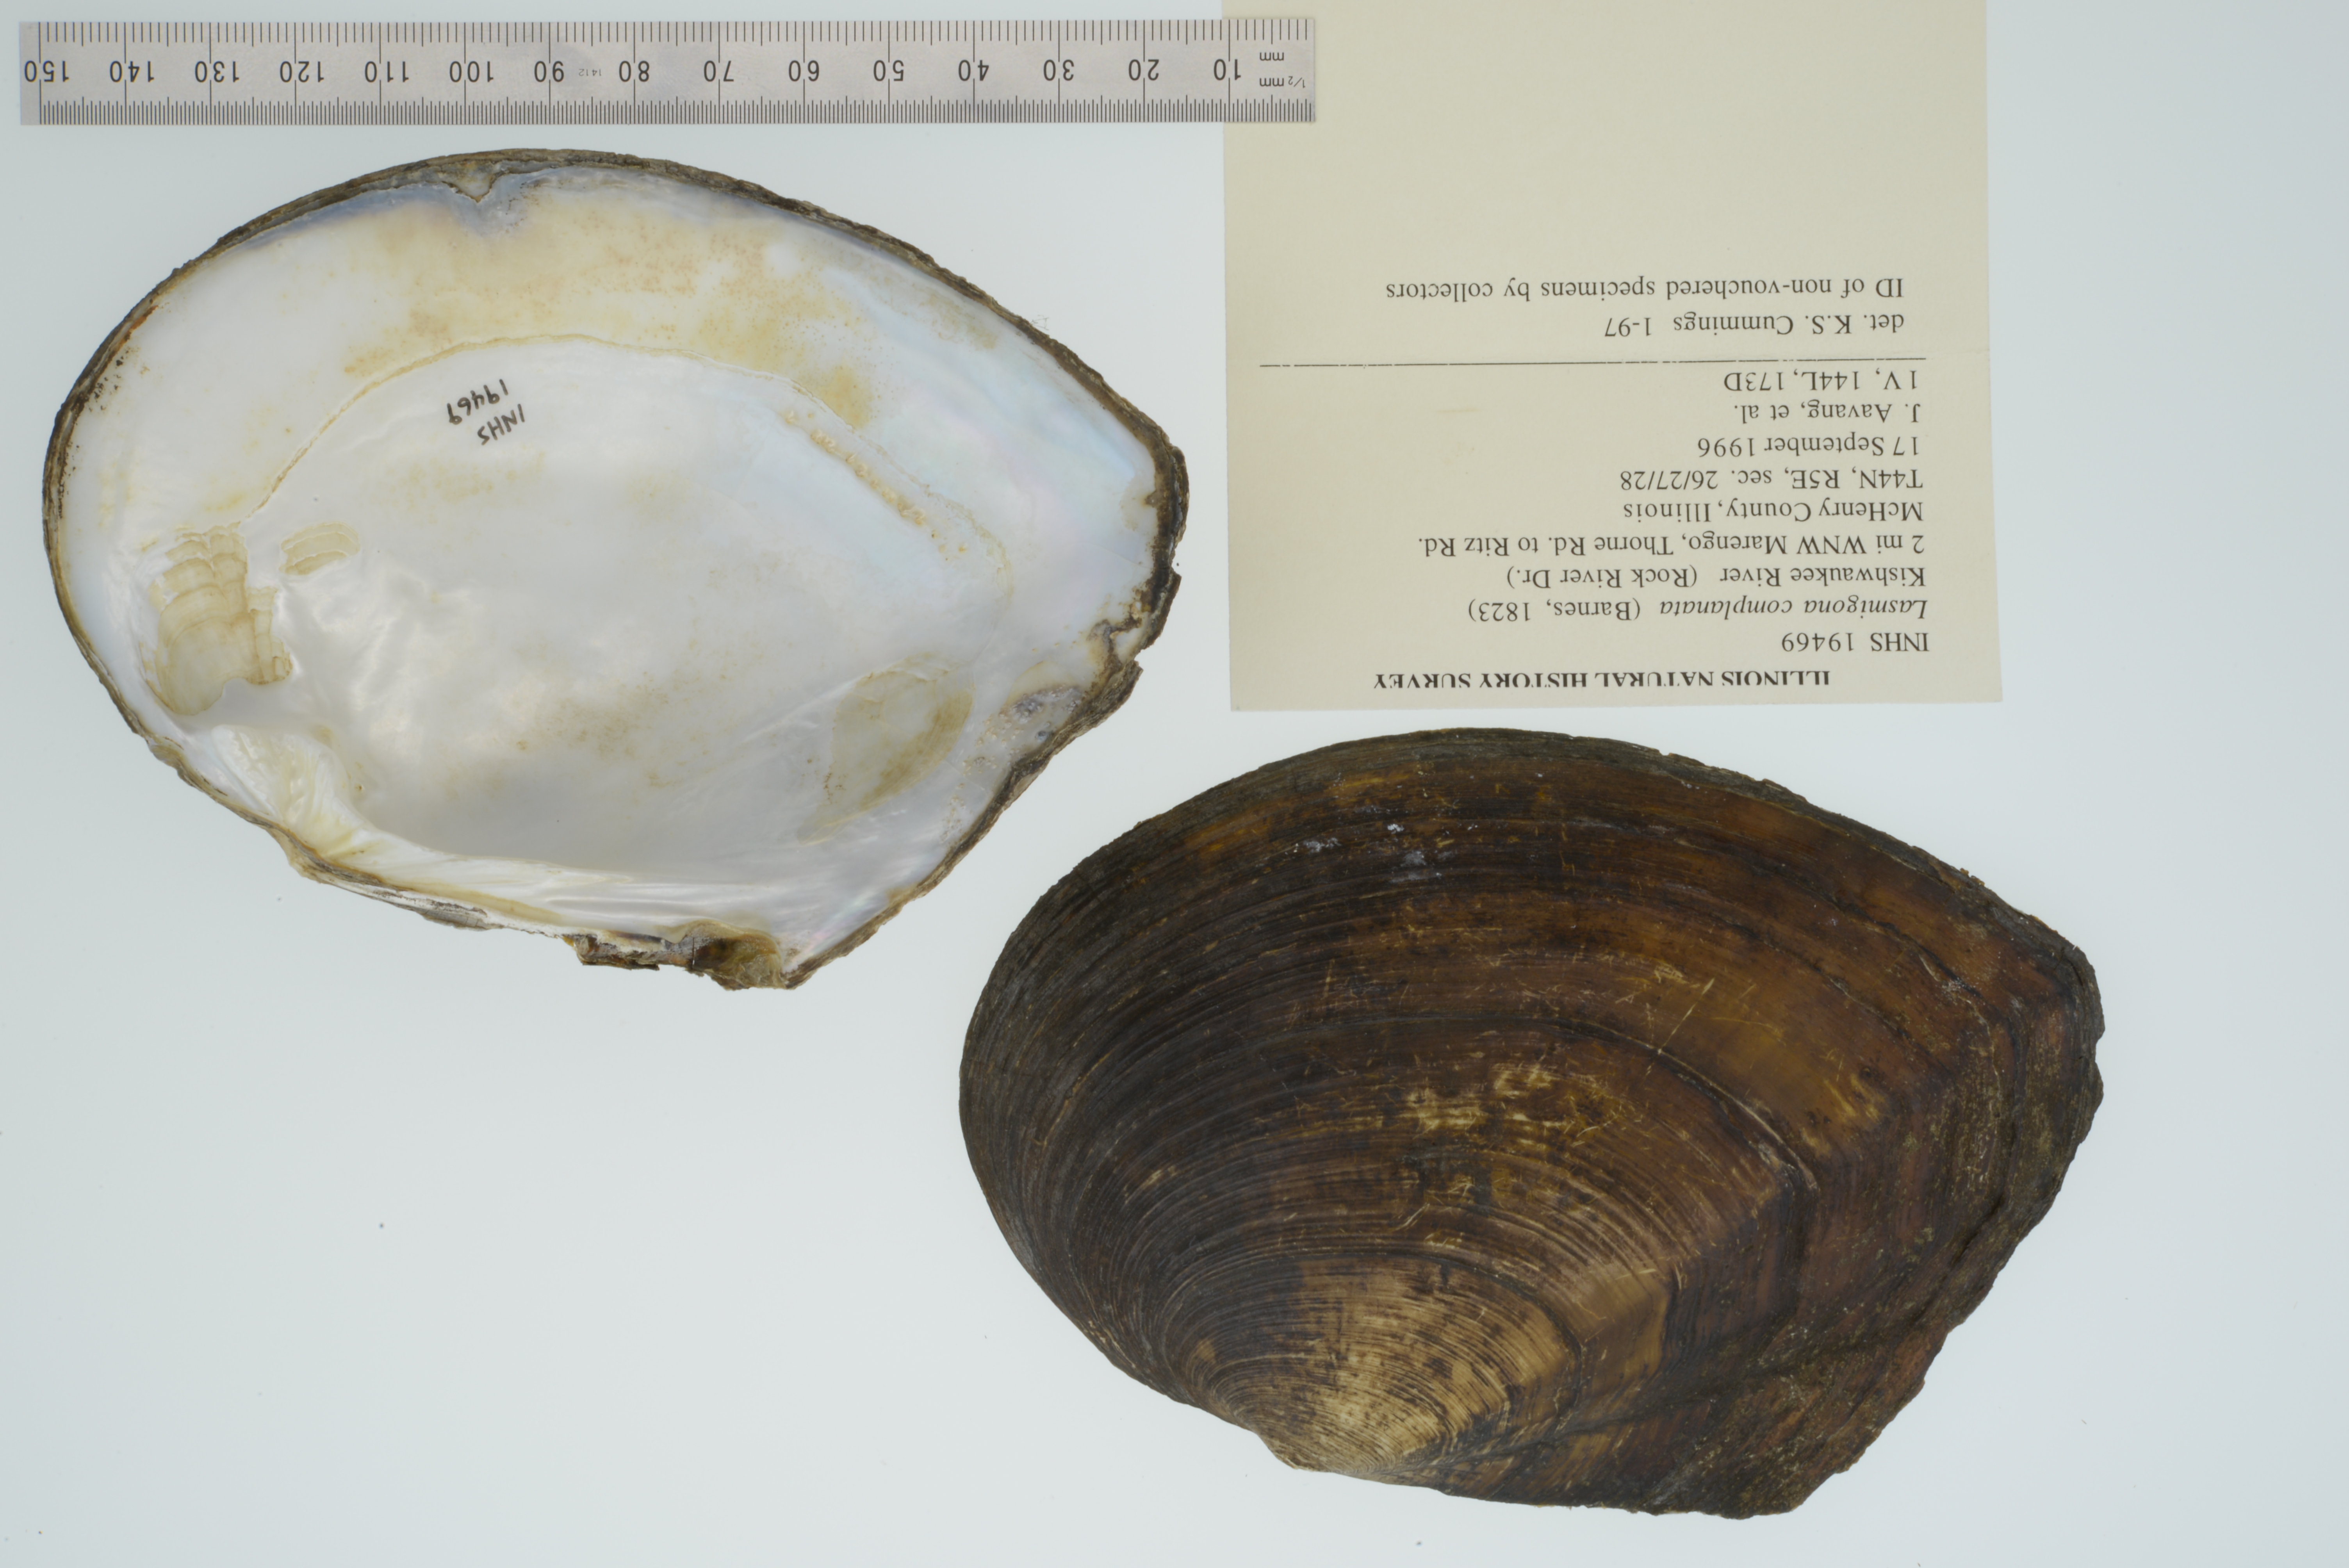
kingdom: Animalia
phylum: Mollusca
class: Bivalvia
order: Unionida
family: Unionidae
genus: Lasmigona
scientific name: Lasmigona complanata
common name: White heelsplitter
